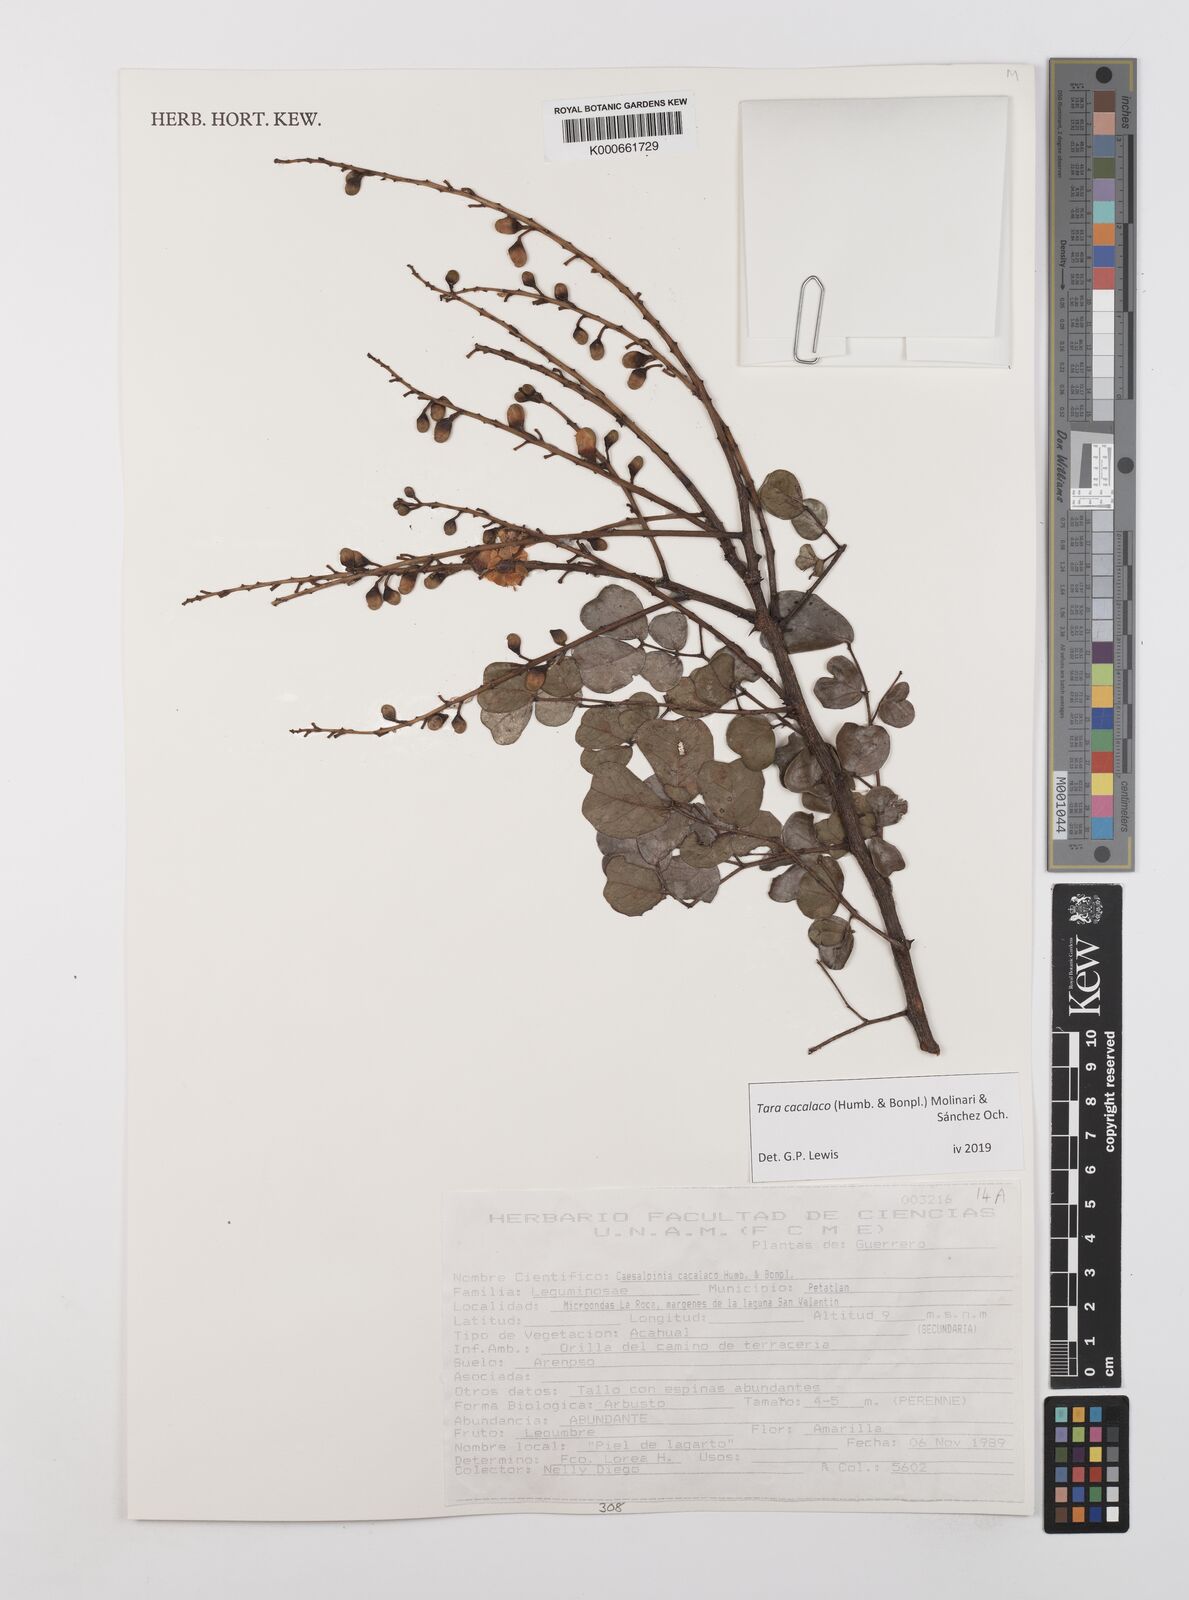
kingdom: Plantae
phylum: Tracheophyta
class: Magnoliopsida
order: Fabales
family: Fabaceae
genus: Tara
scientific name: Tara cacalaco
